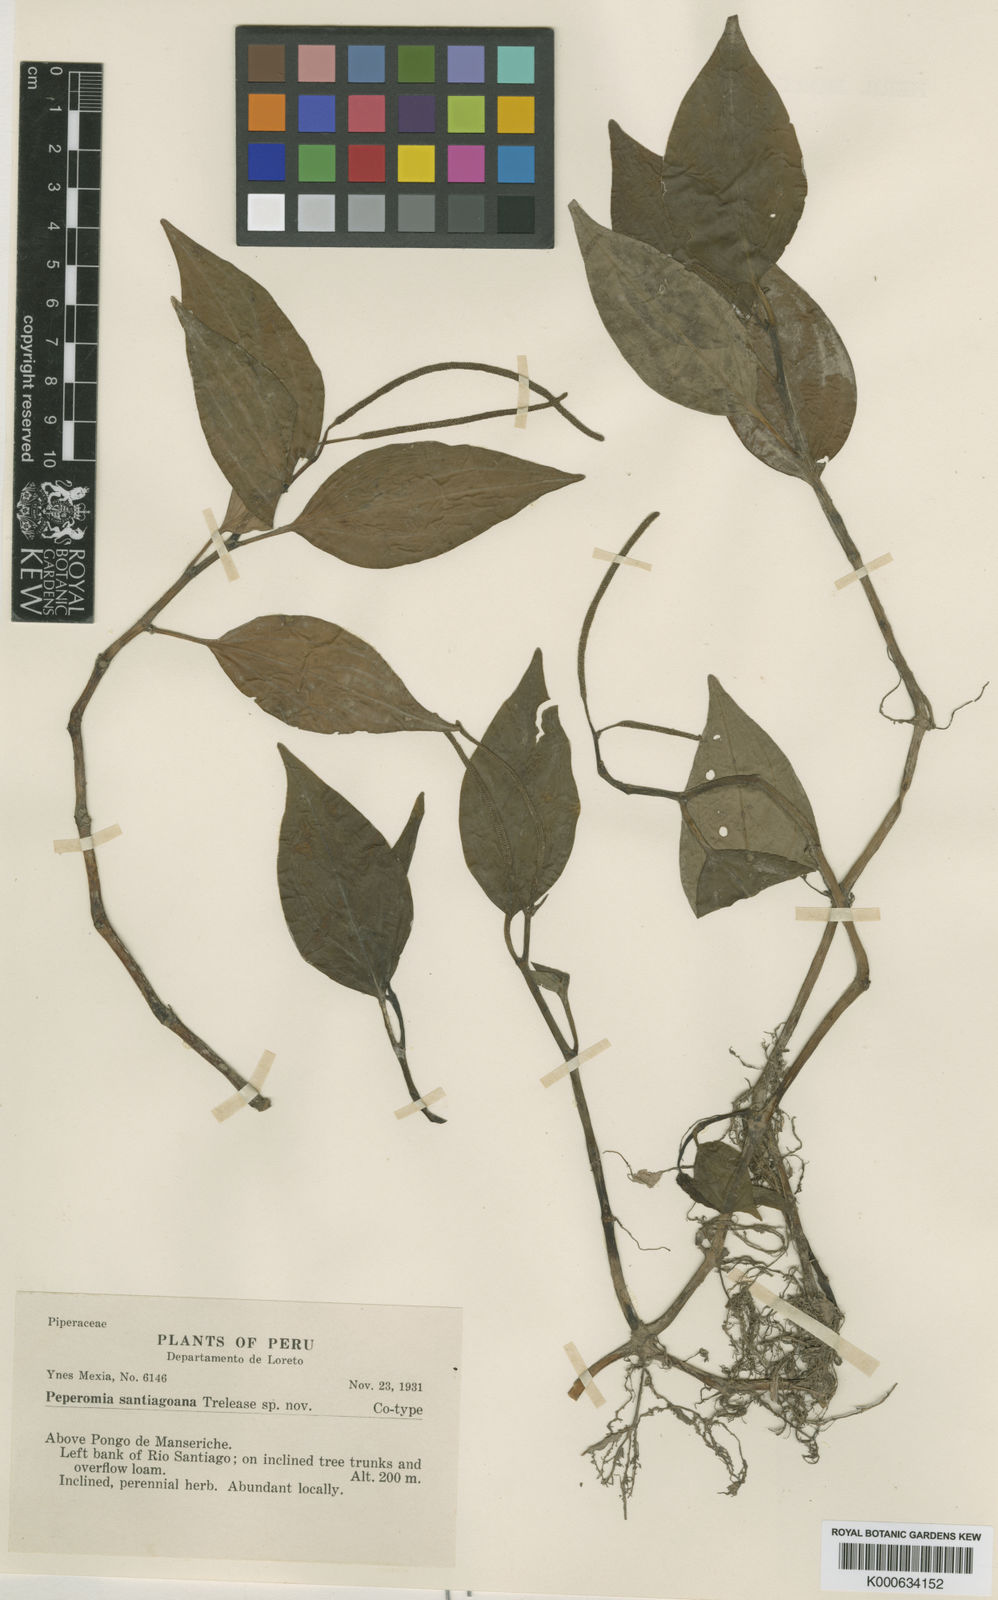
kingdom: Plantae
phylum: Tracheophyta
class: Magnoliopsida
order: Piperales
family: Piperaceae
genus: Peperomia
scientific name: Peperomia santiagoana
